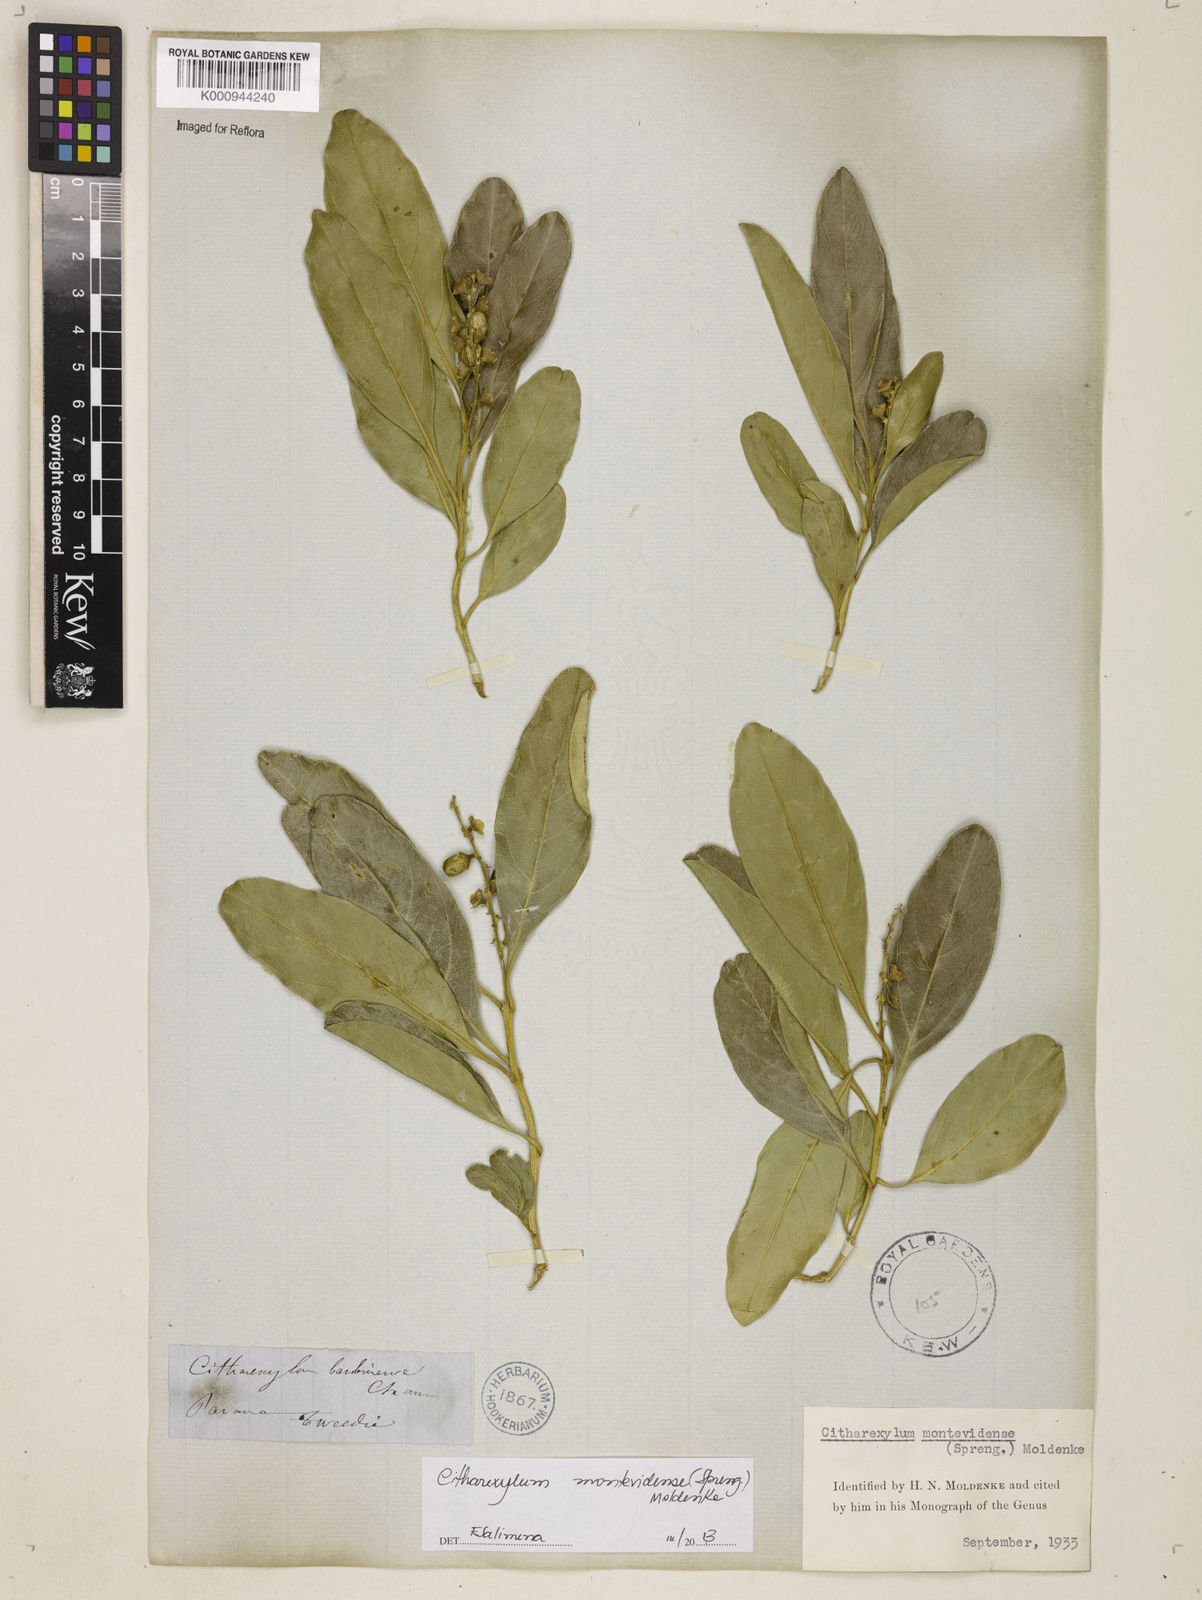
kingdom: Plantae
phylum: Tracheophyta
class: Magnoliopsida
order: Lamiales
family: Verbenaceae
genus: Citharexylum
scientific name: Citharexylum
